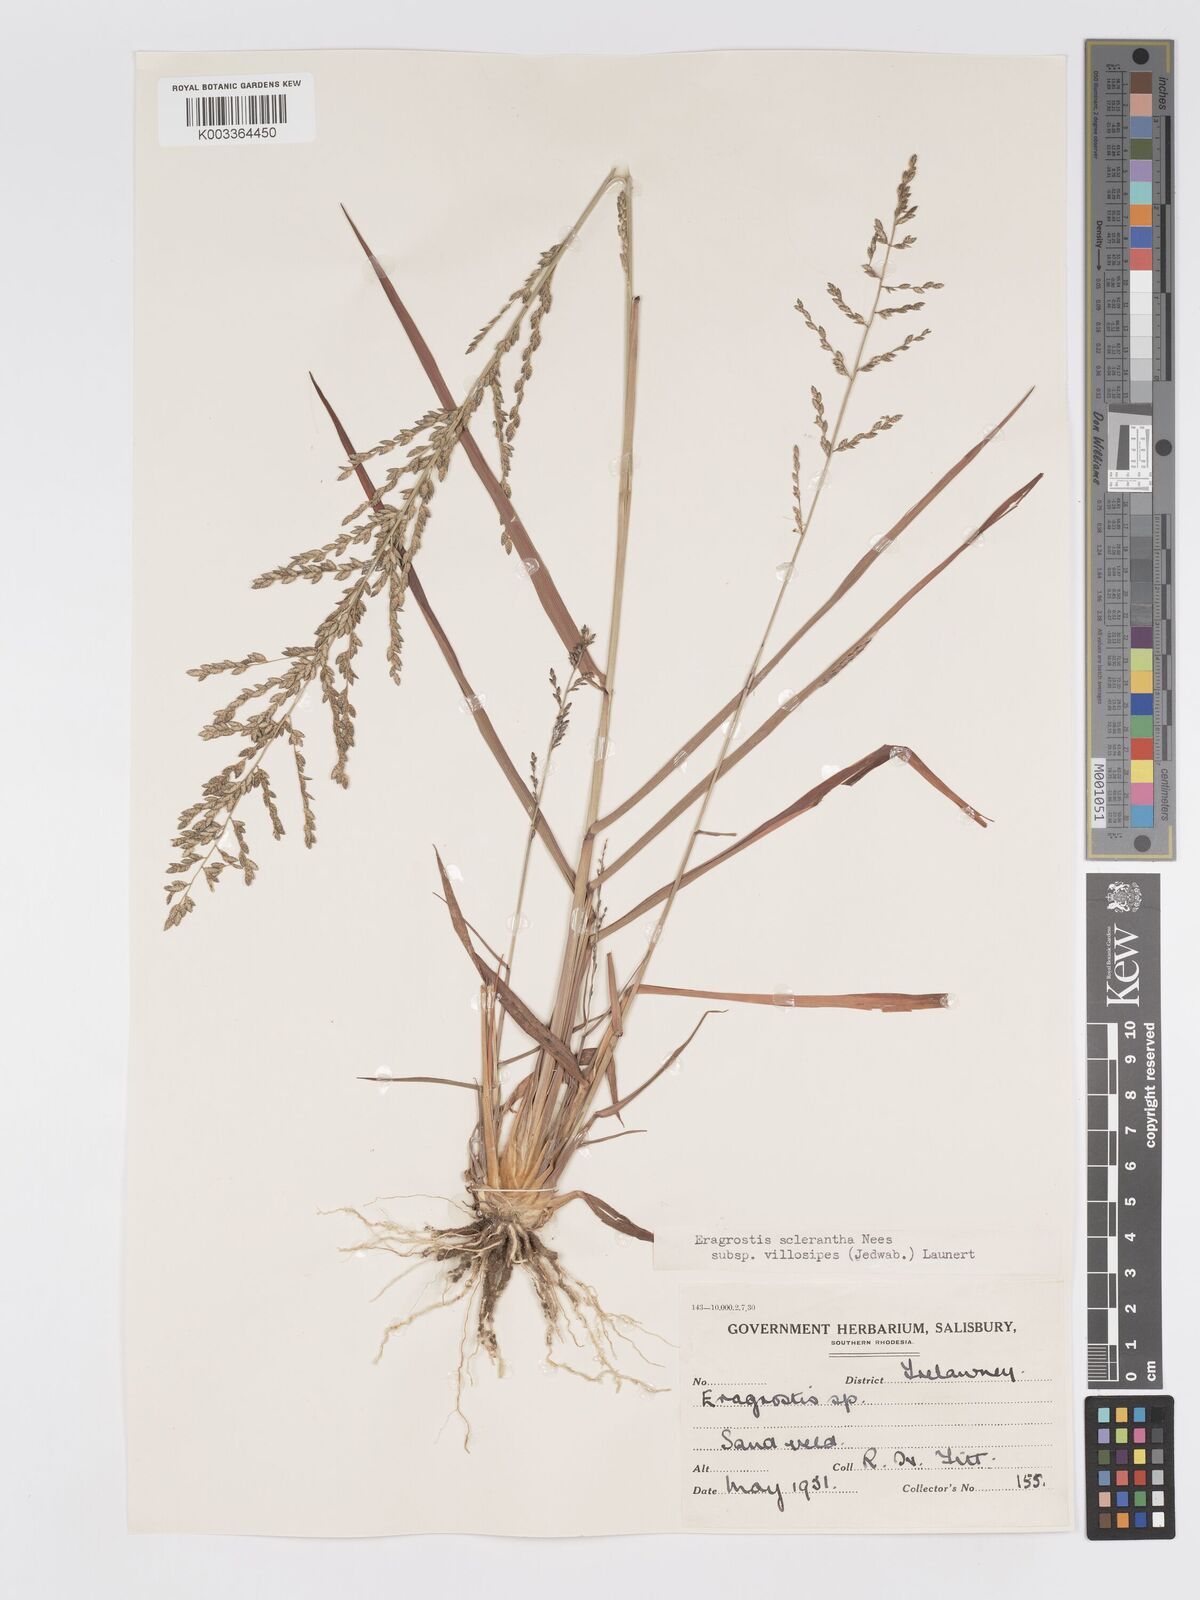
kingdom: Plantae
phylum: Tracheophyta
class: Liliopsida
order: Poales
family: Poaceae
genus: Eragrostis
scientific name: Eragrostis sclerantha
